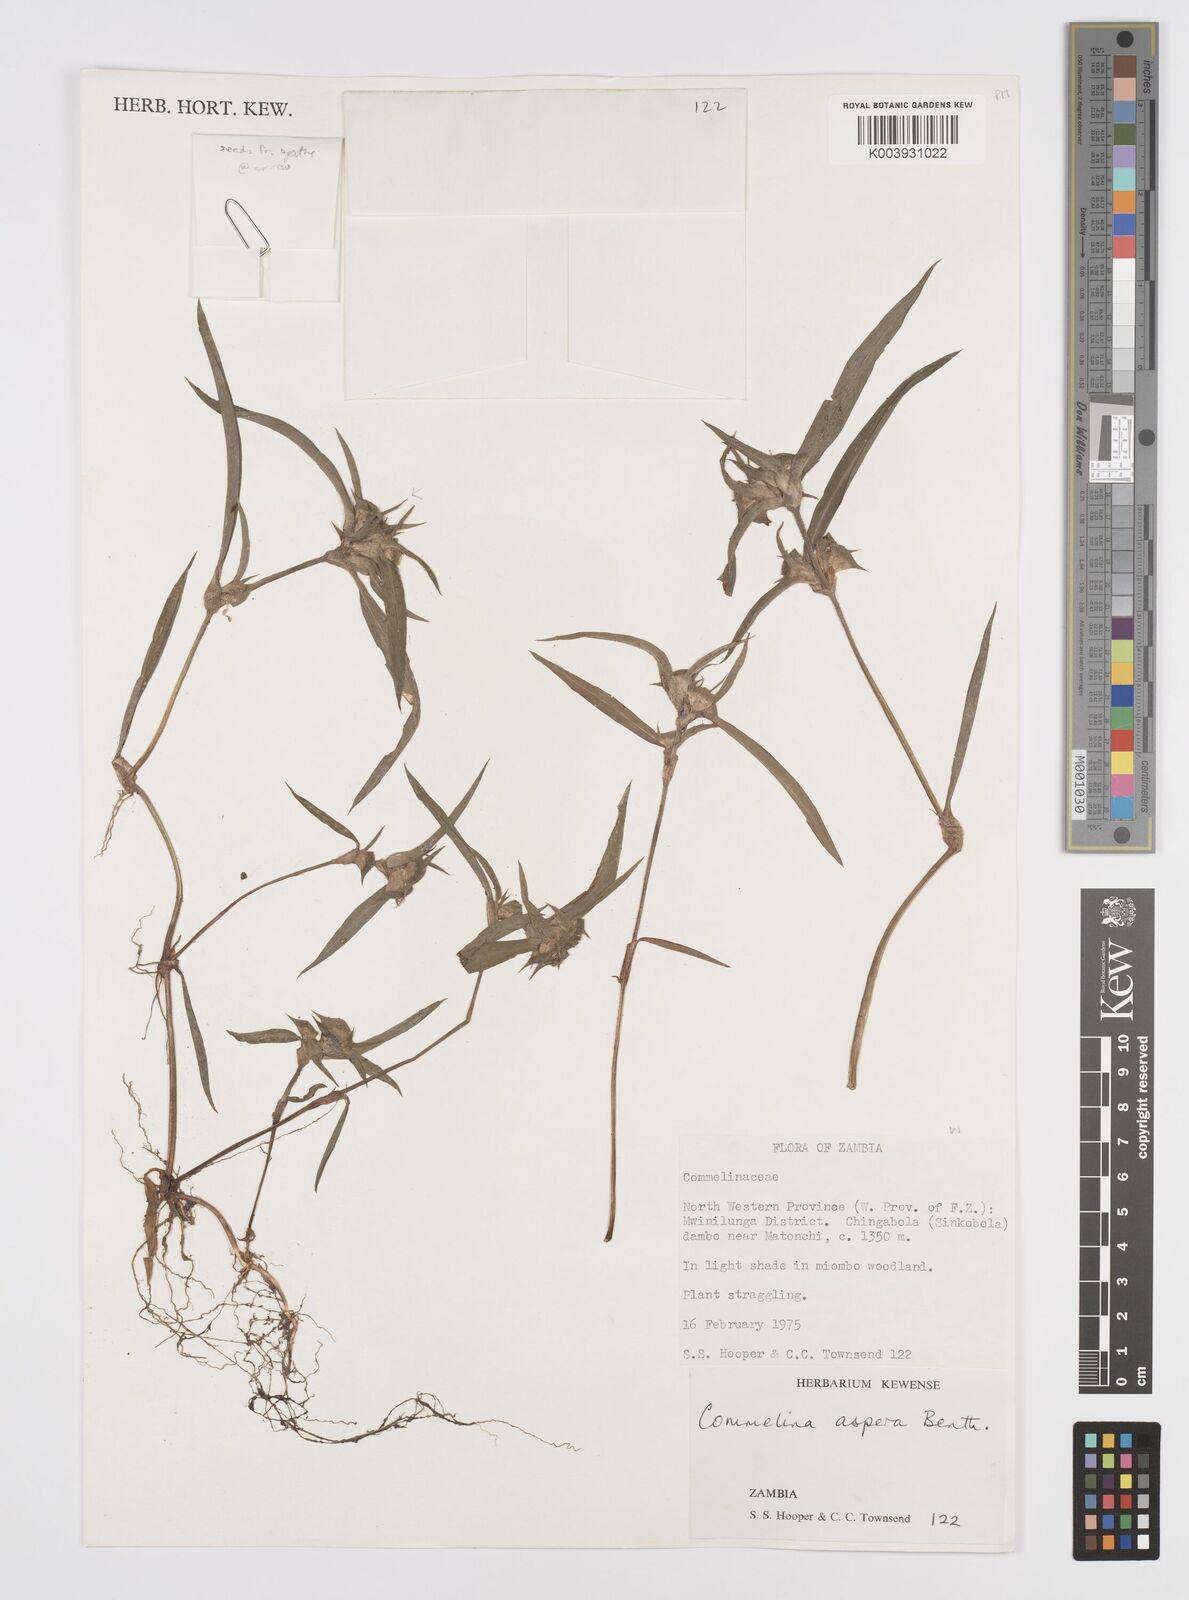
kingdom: Plantae
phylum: Tracheophyta
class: Liliopsida
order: Commelinales
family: Commelinaceae
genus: Commelina
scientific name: Commelina aspera
